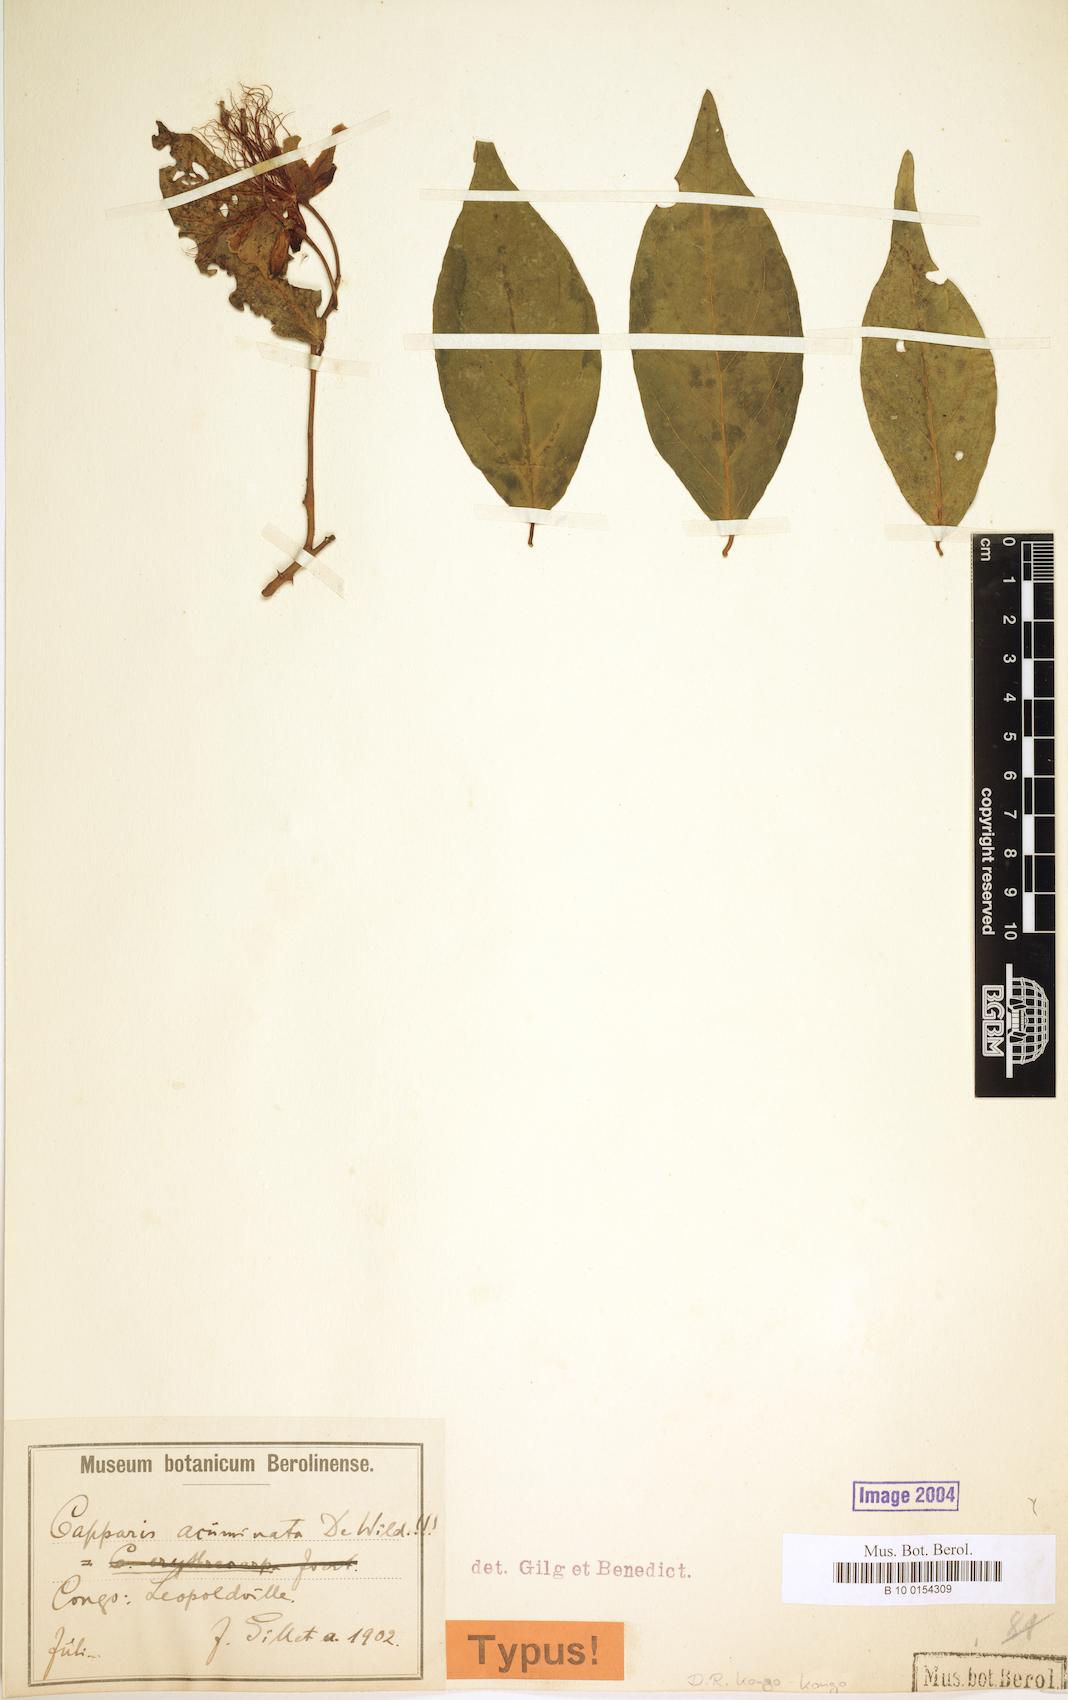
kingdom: Plantae
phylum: Tracheophyta
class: Magnoliopsida
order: Brassicales
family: Capparaceae
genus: Capparis
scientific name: Capparis erythrocarpos
